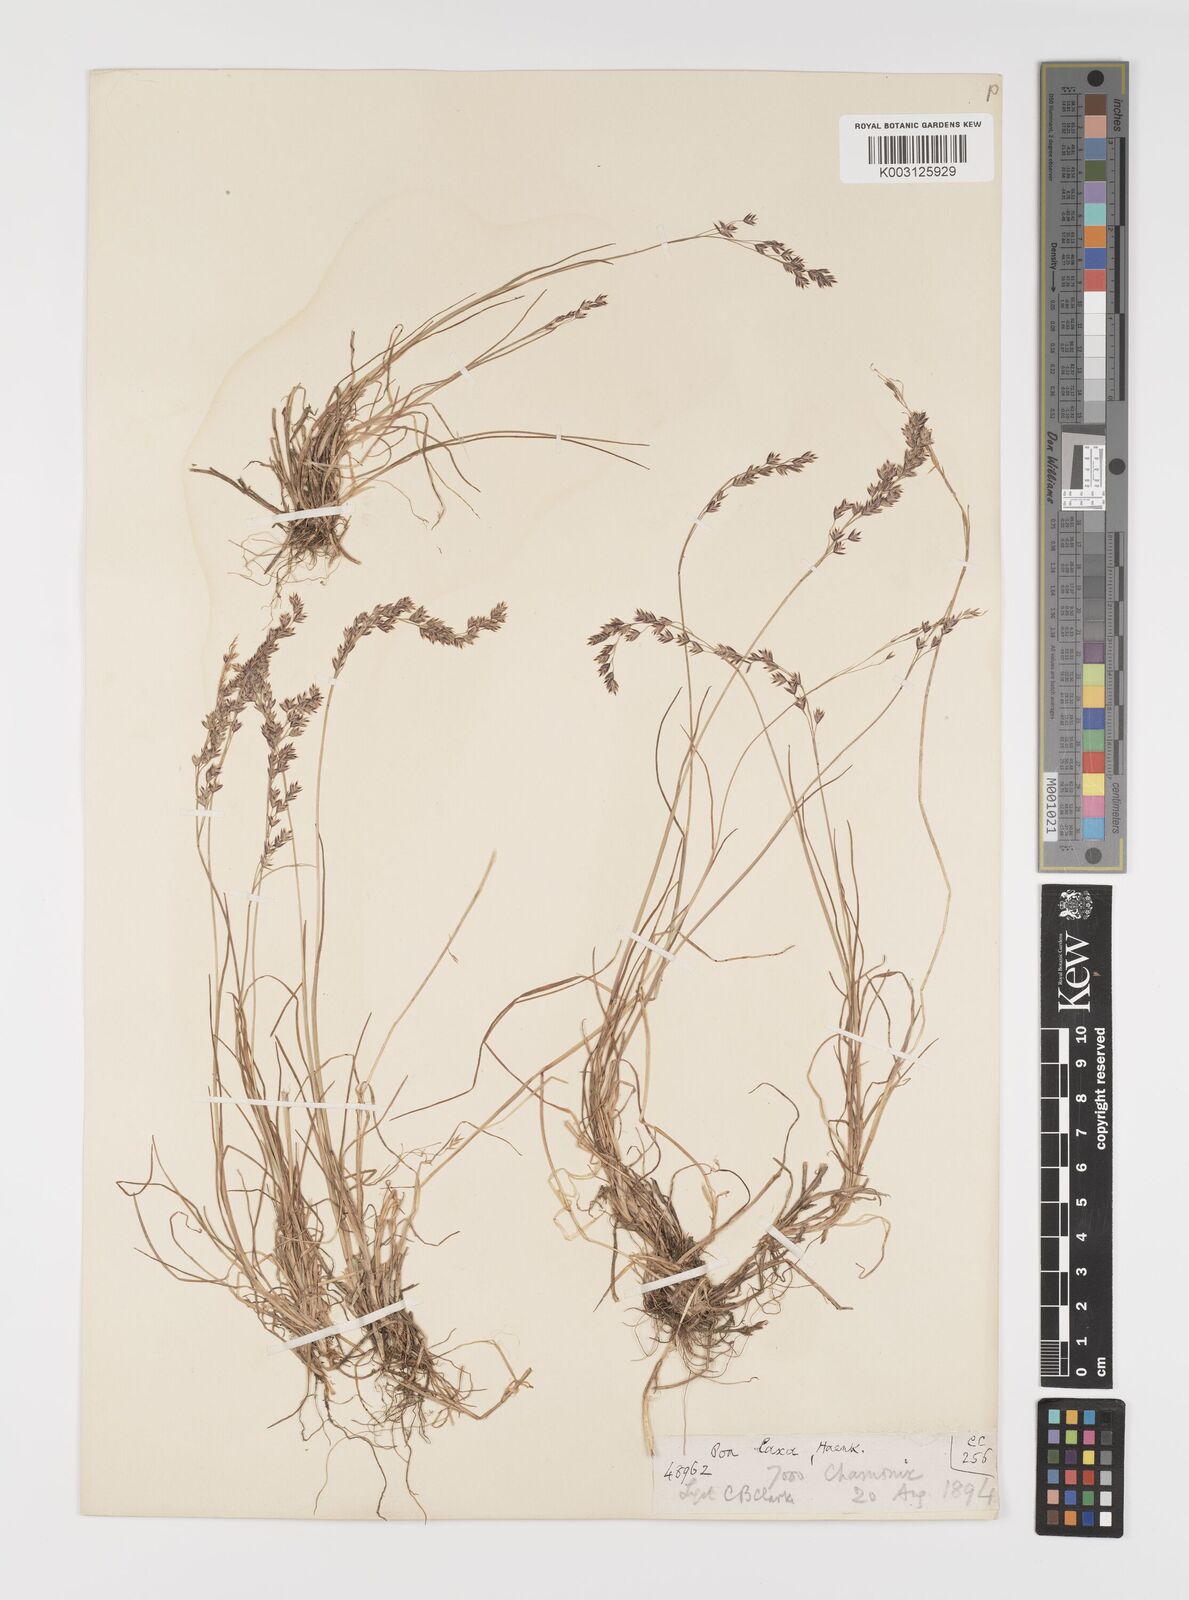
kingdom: Plantae
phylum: Tracheophyta
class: Liliopsida
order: Poales
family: Poaceae
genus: Poa
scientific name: Poa laxa
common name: Lax bluegrass
